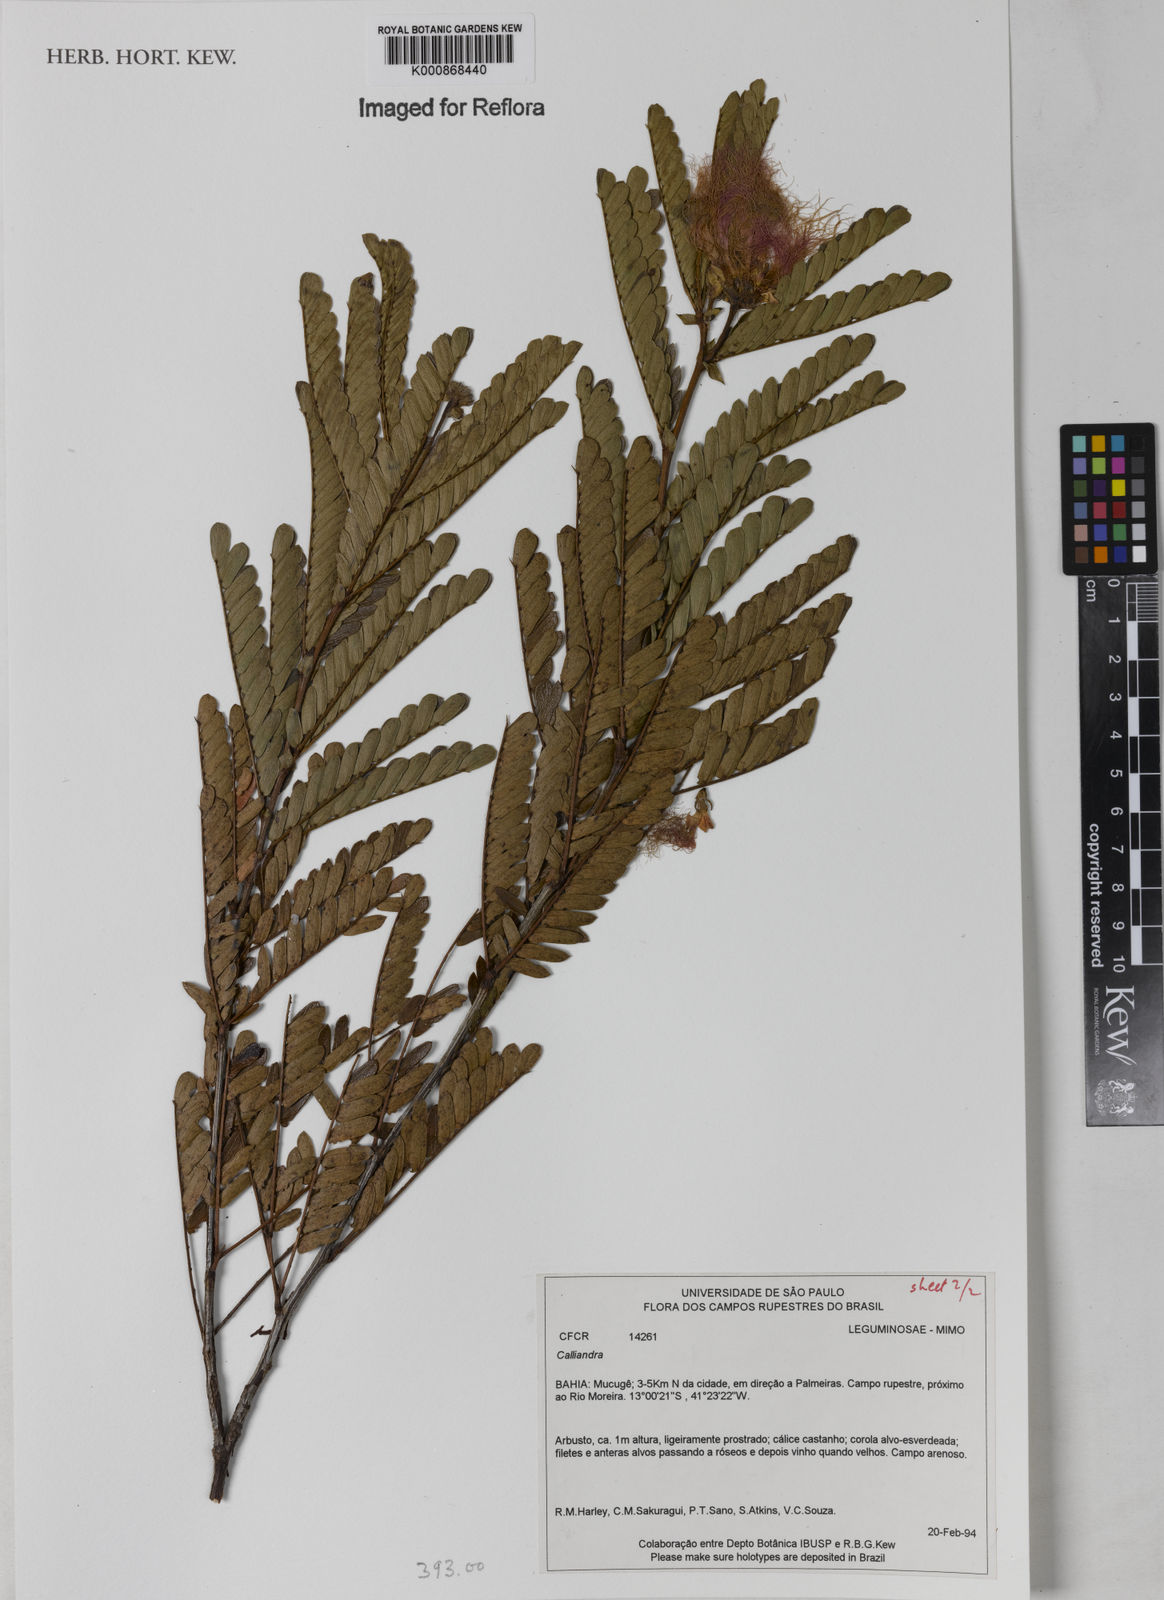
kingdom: Plantae
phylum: Tracheophyta
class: Magnoliopsida
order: Fabales
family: Fabaceae
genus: Calliandra
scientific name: Calliandra
